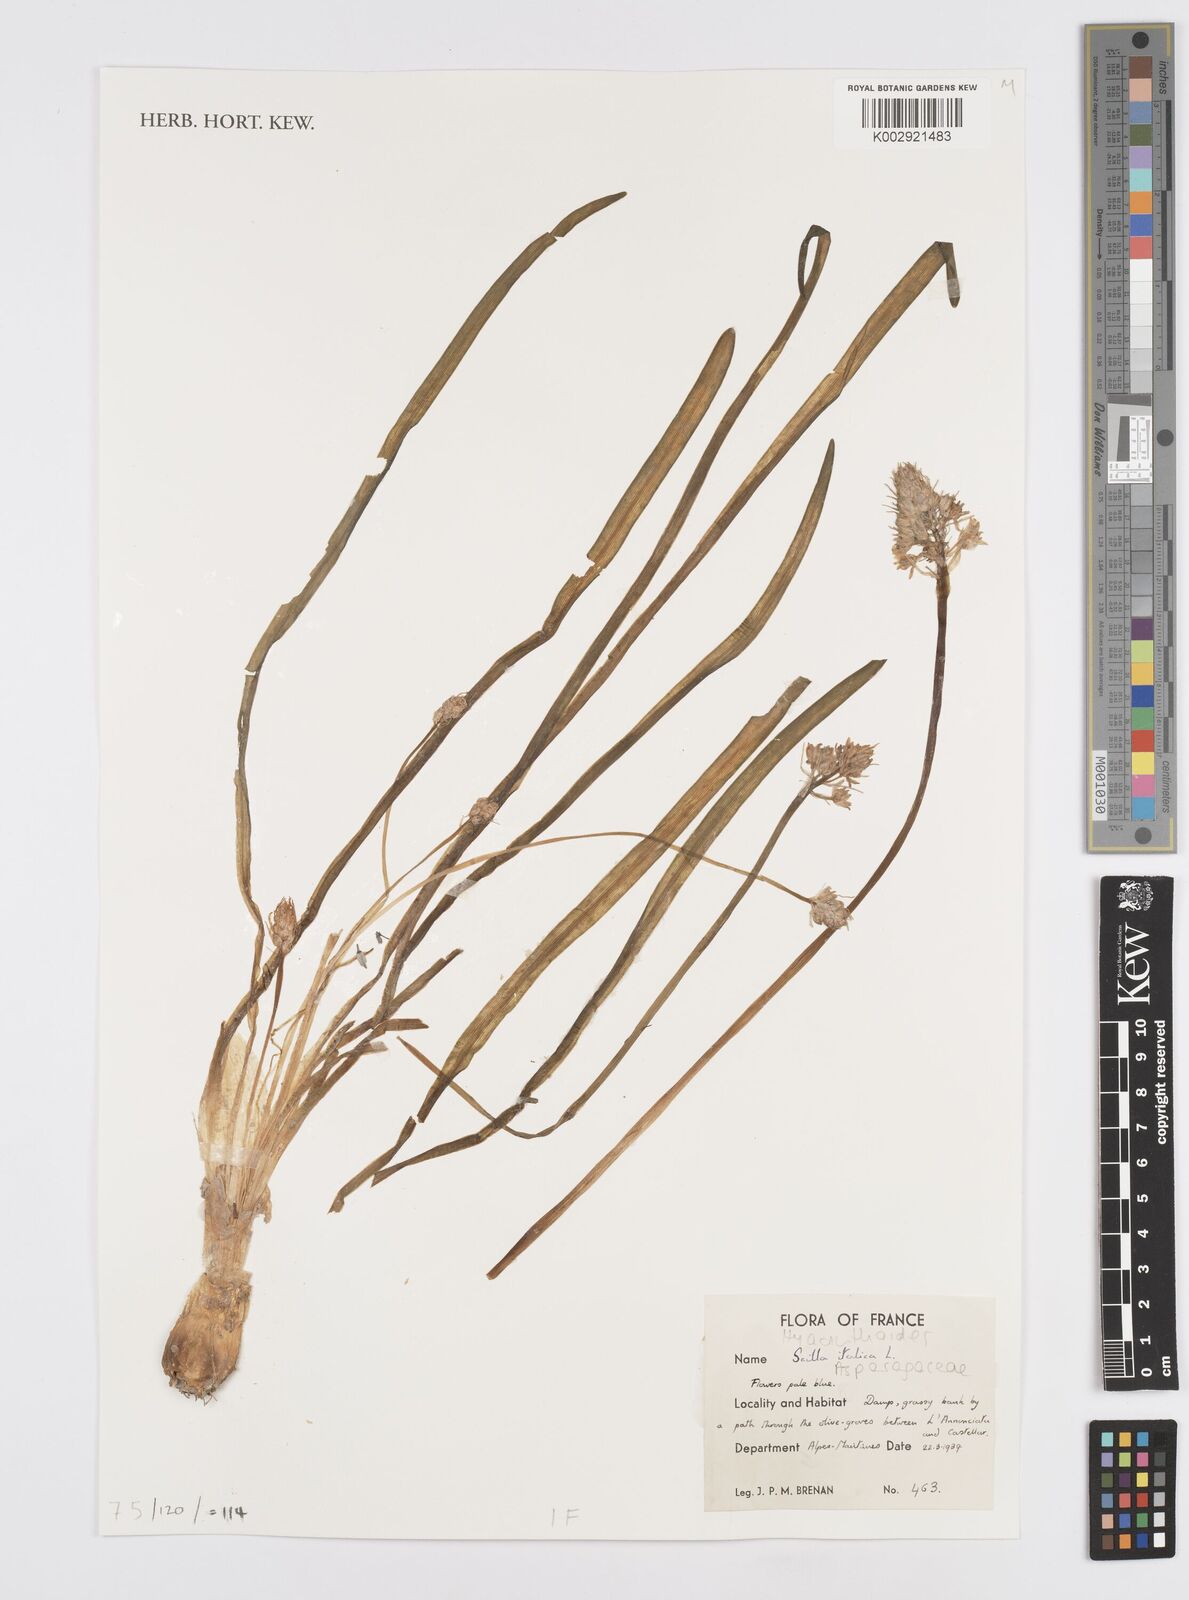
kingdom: Plantae
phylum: Tracheophyta
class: Liliopsida
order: Asparagales
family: Asparagaceae
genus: Hyacinthoides
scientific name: Hyacinthoides italica
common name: Italian bluebell
